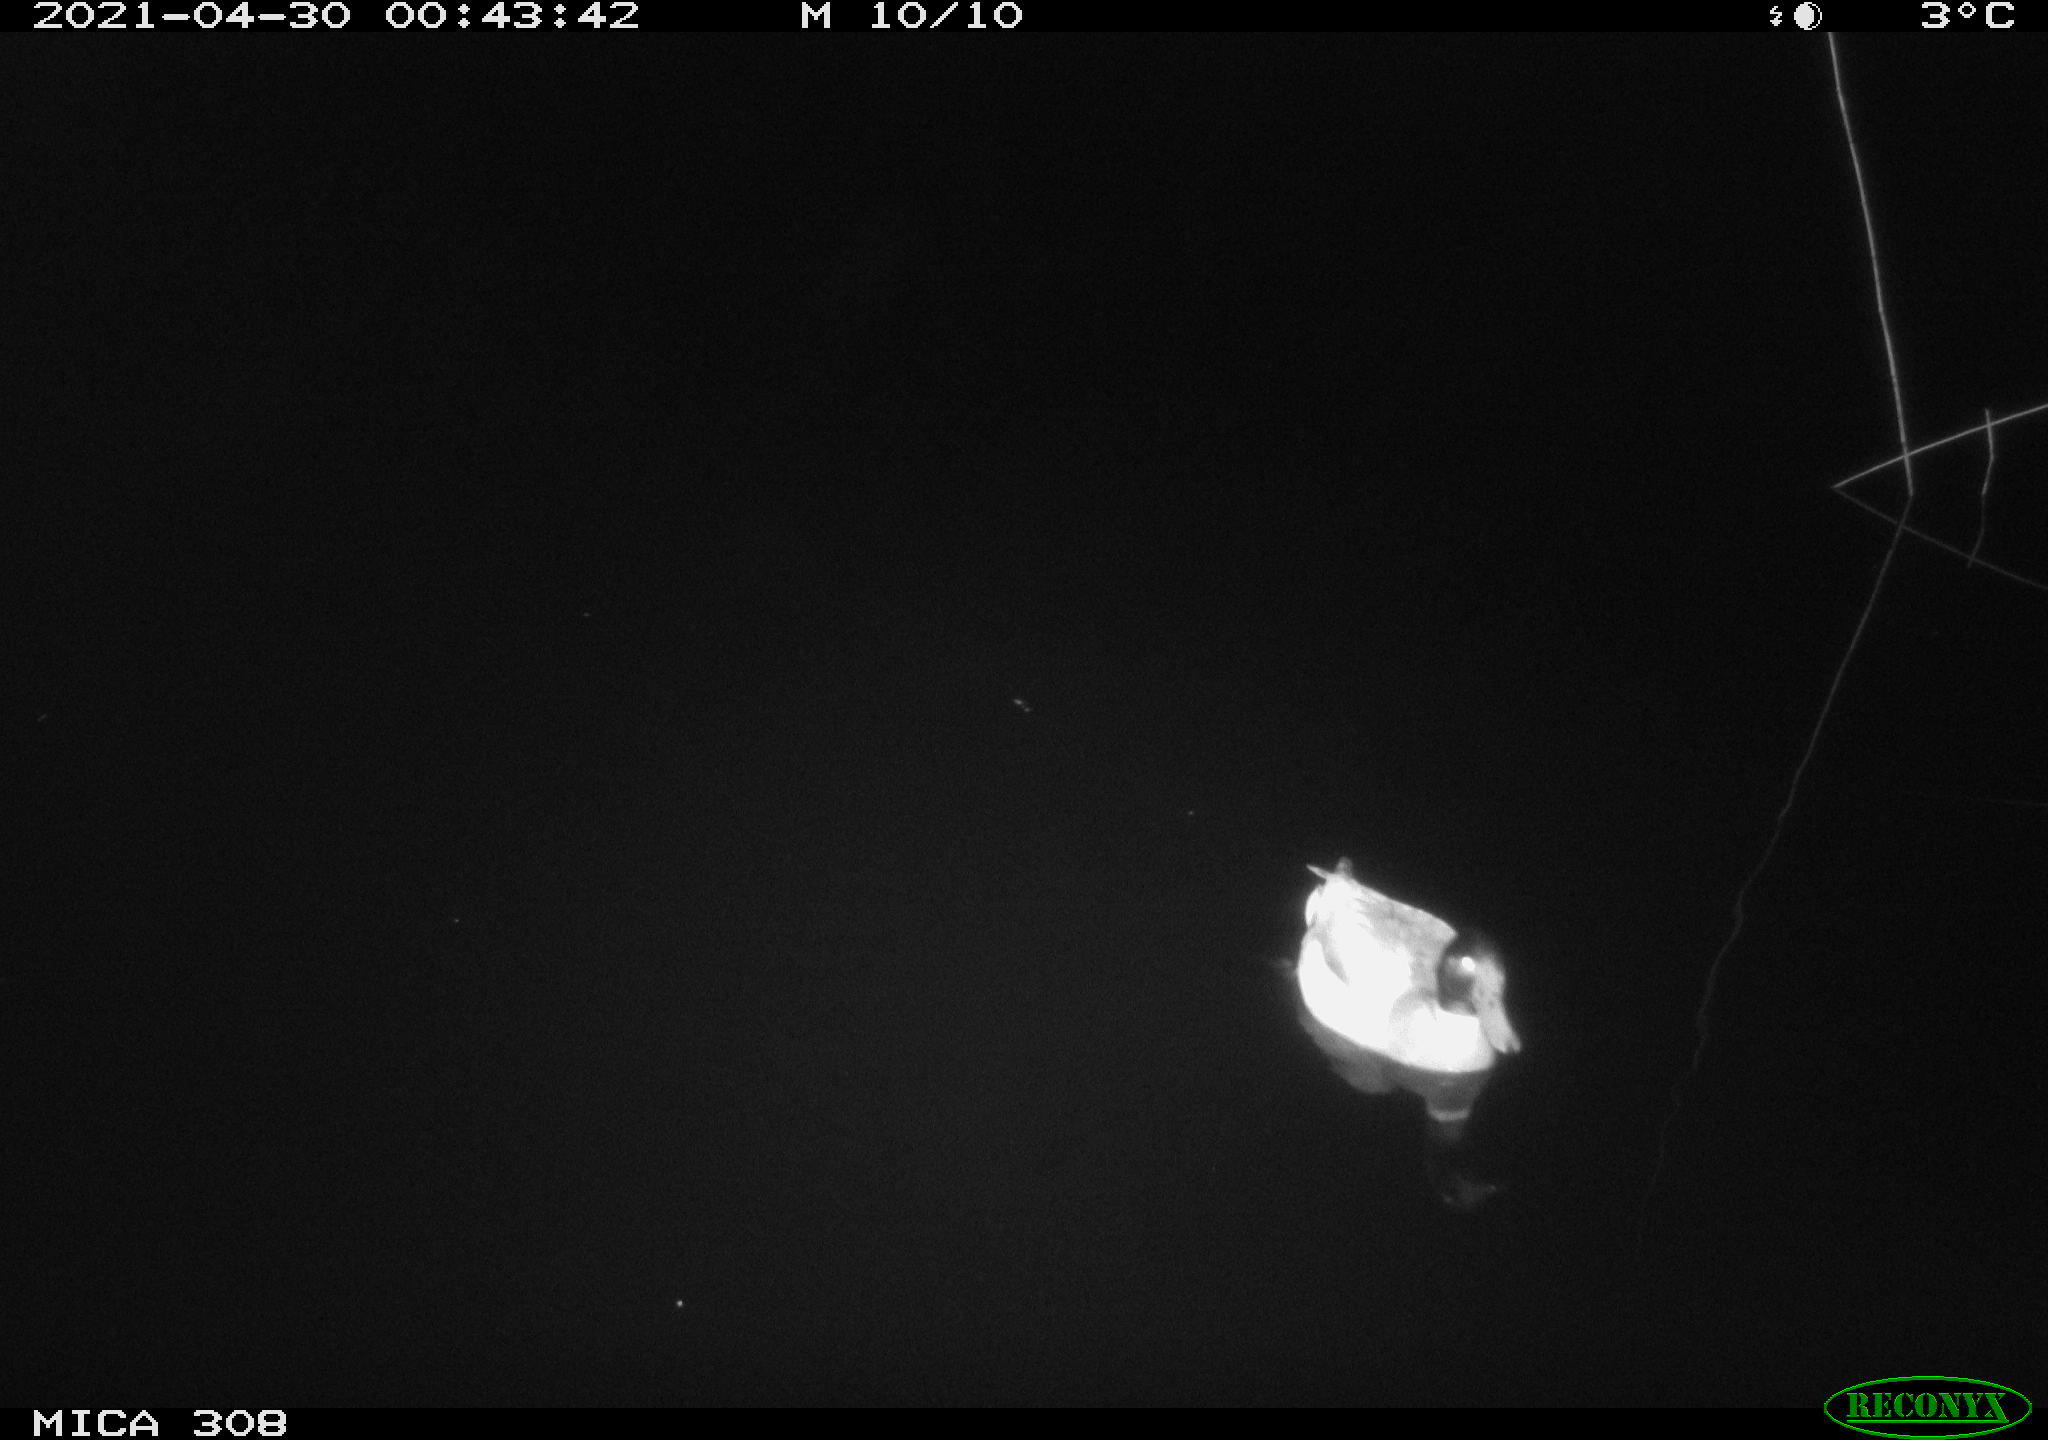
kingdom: Animalia
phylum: Chordata
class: Aves
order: Anseriformes
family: Anatidae
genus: Anas
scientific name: Anas platyrhynchos
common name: Mallard
